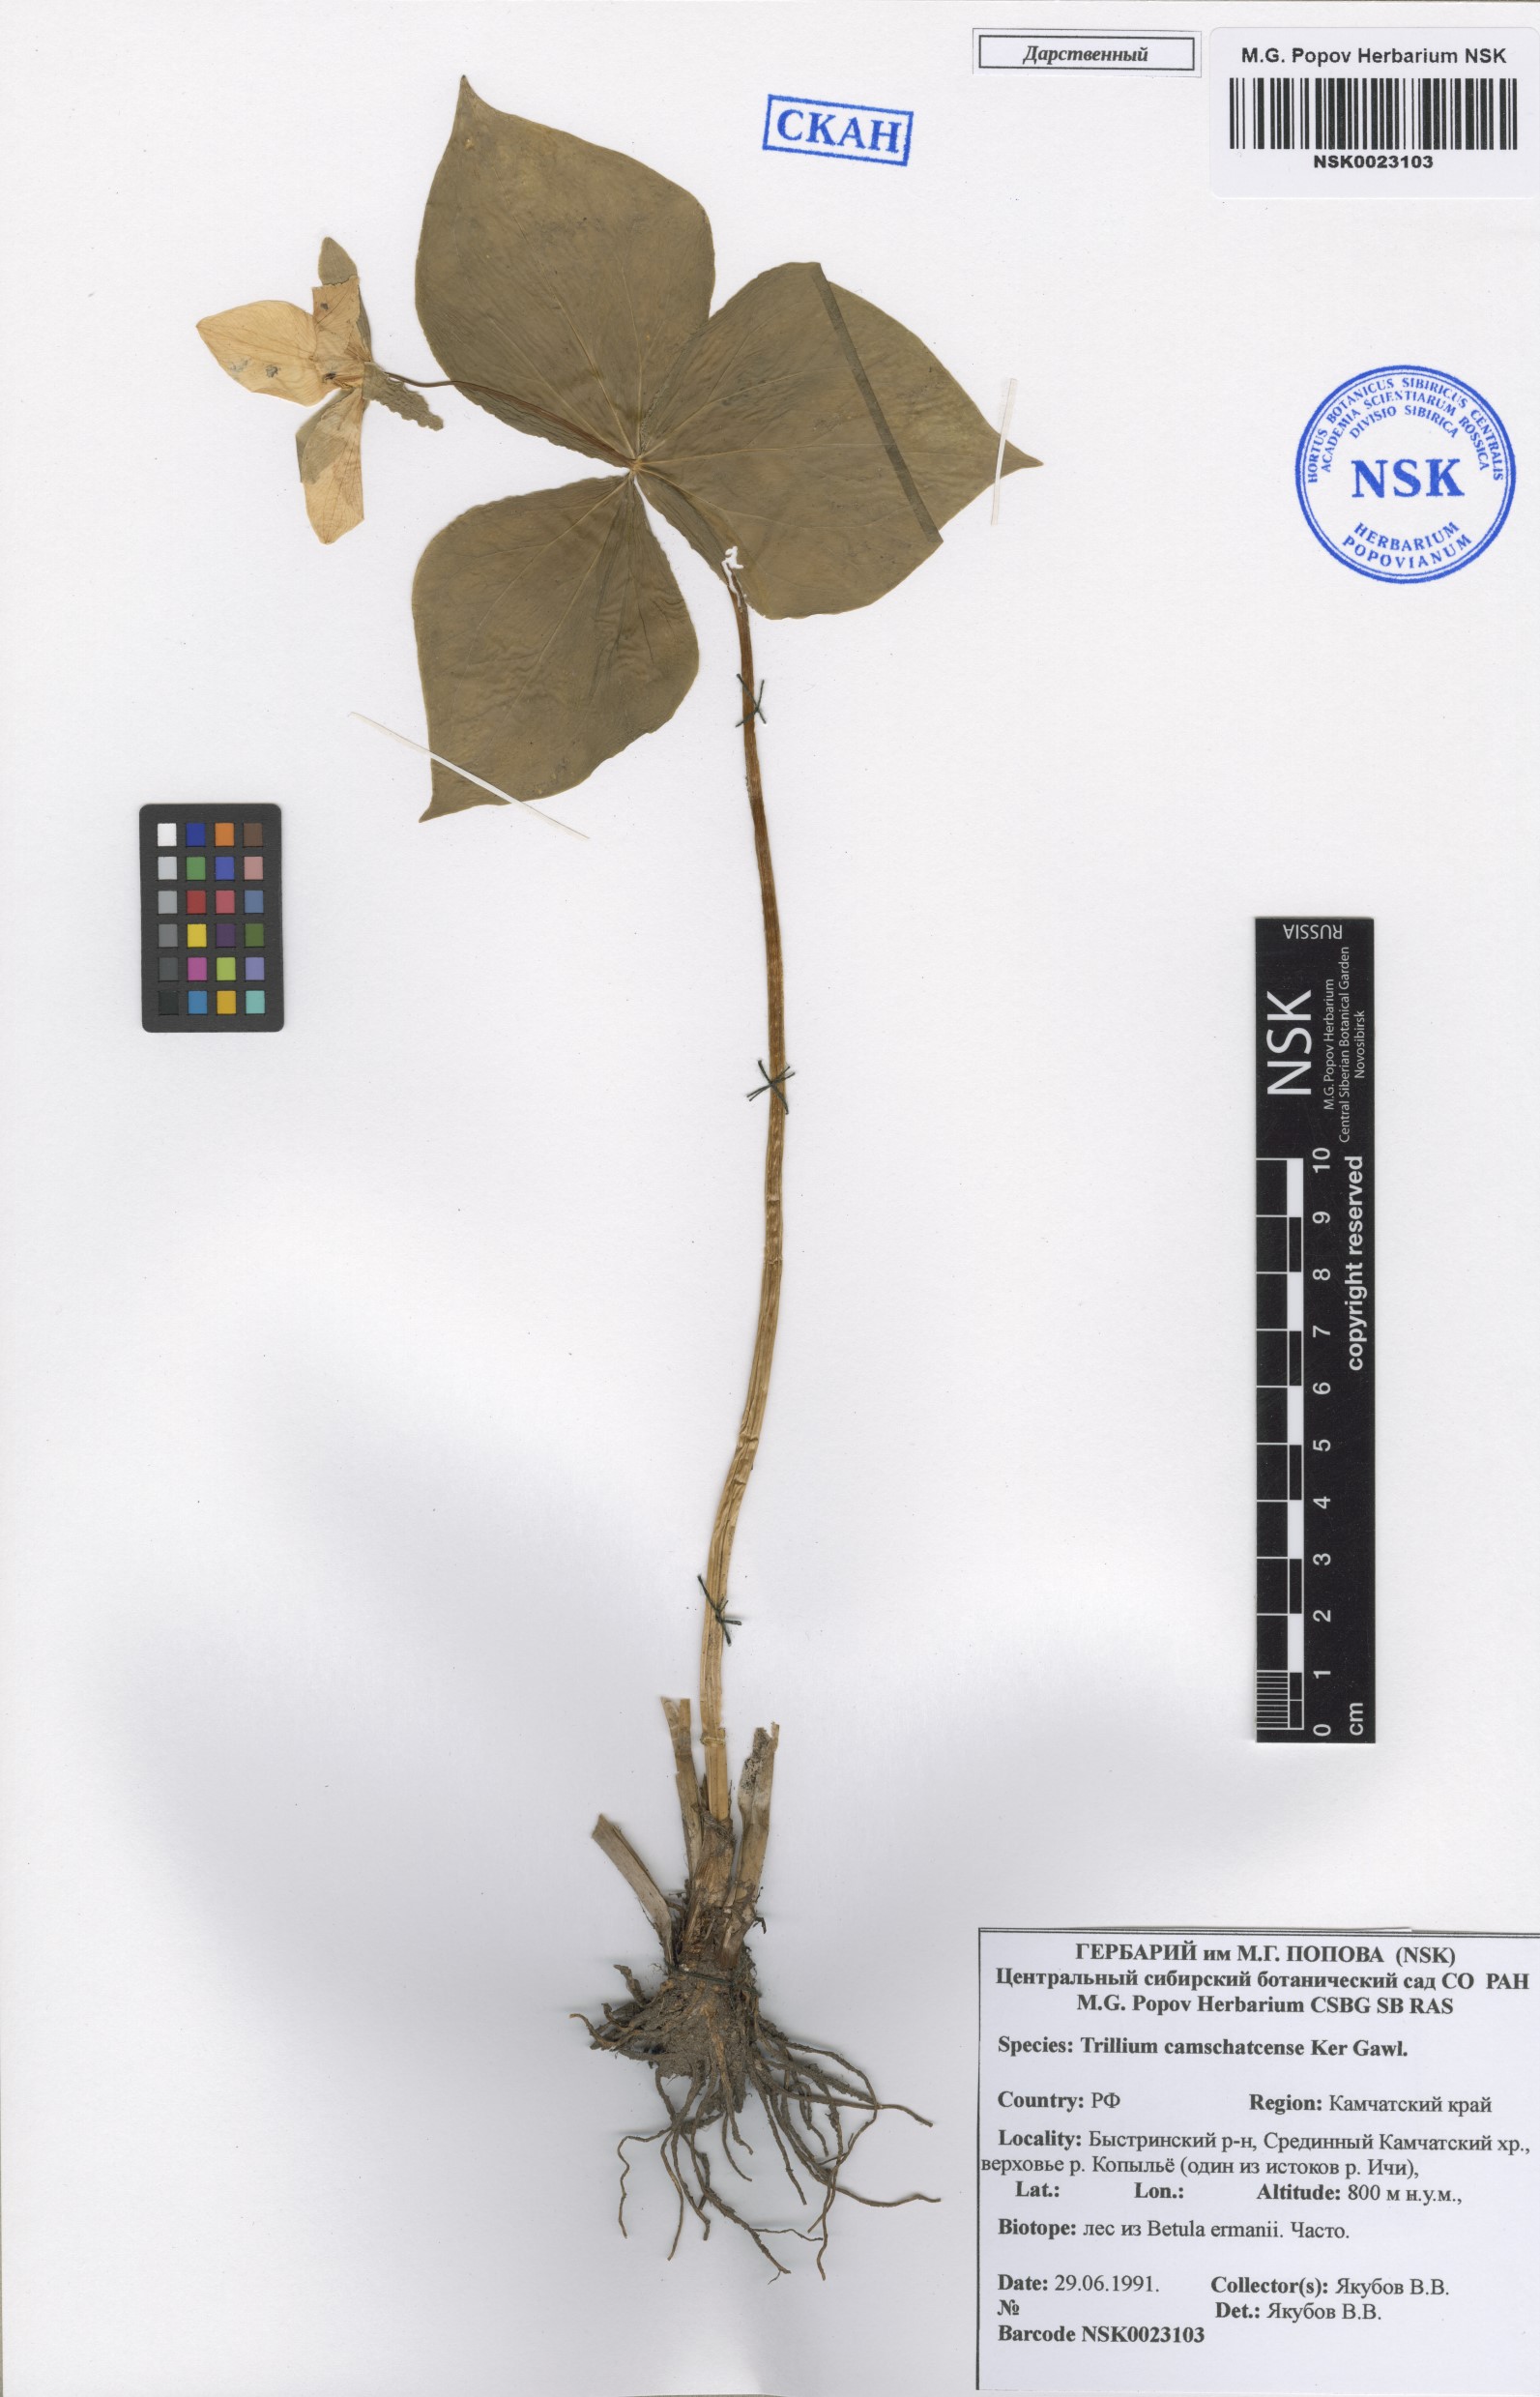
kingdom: Plantae
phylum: Tracheophyta
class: Liliopsida
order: Liliales
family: Melanthiaceae
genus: Trillium
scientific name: Trillium camschatcense
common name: Kamchatka trillium
